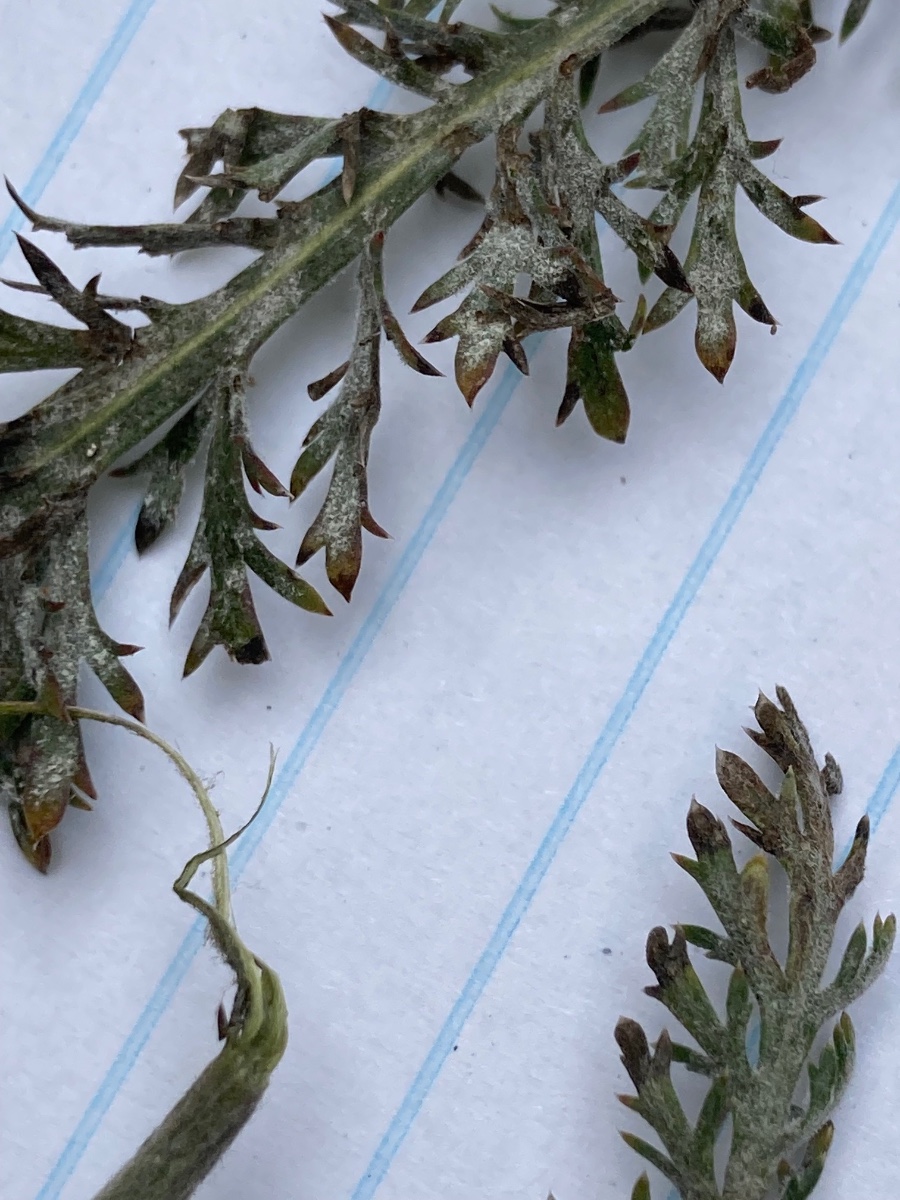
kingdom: Fungi
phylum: Ascomycota
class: Leotiomycetes
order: Helotiales
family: Erysiphaceae
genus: Golovinomyces
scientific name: Golovinomyces
